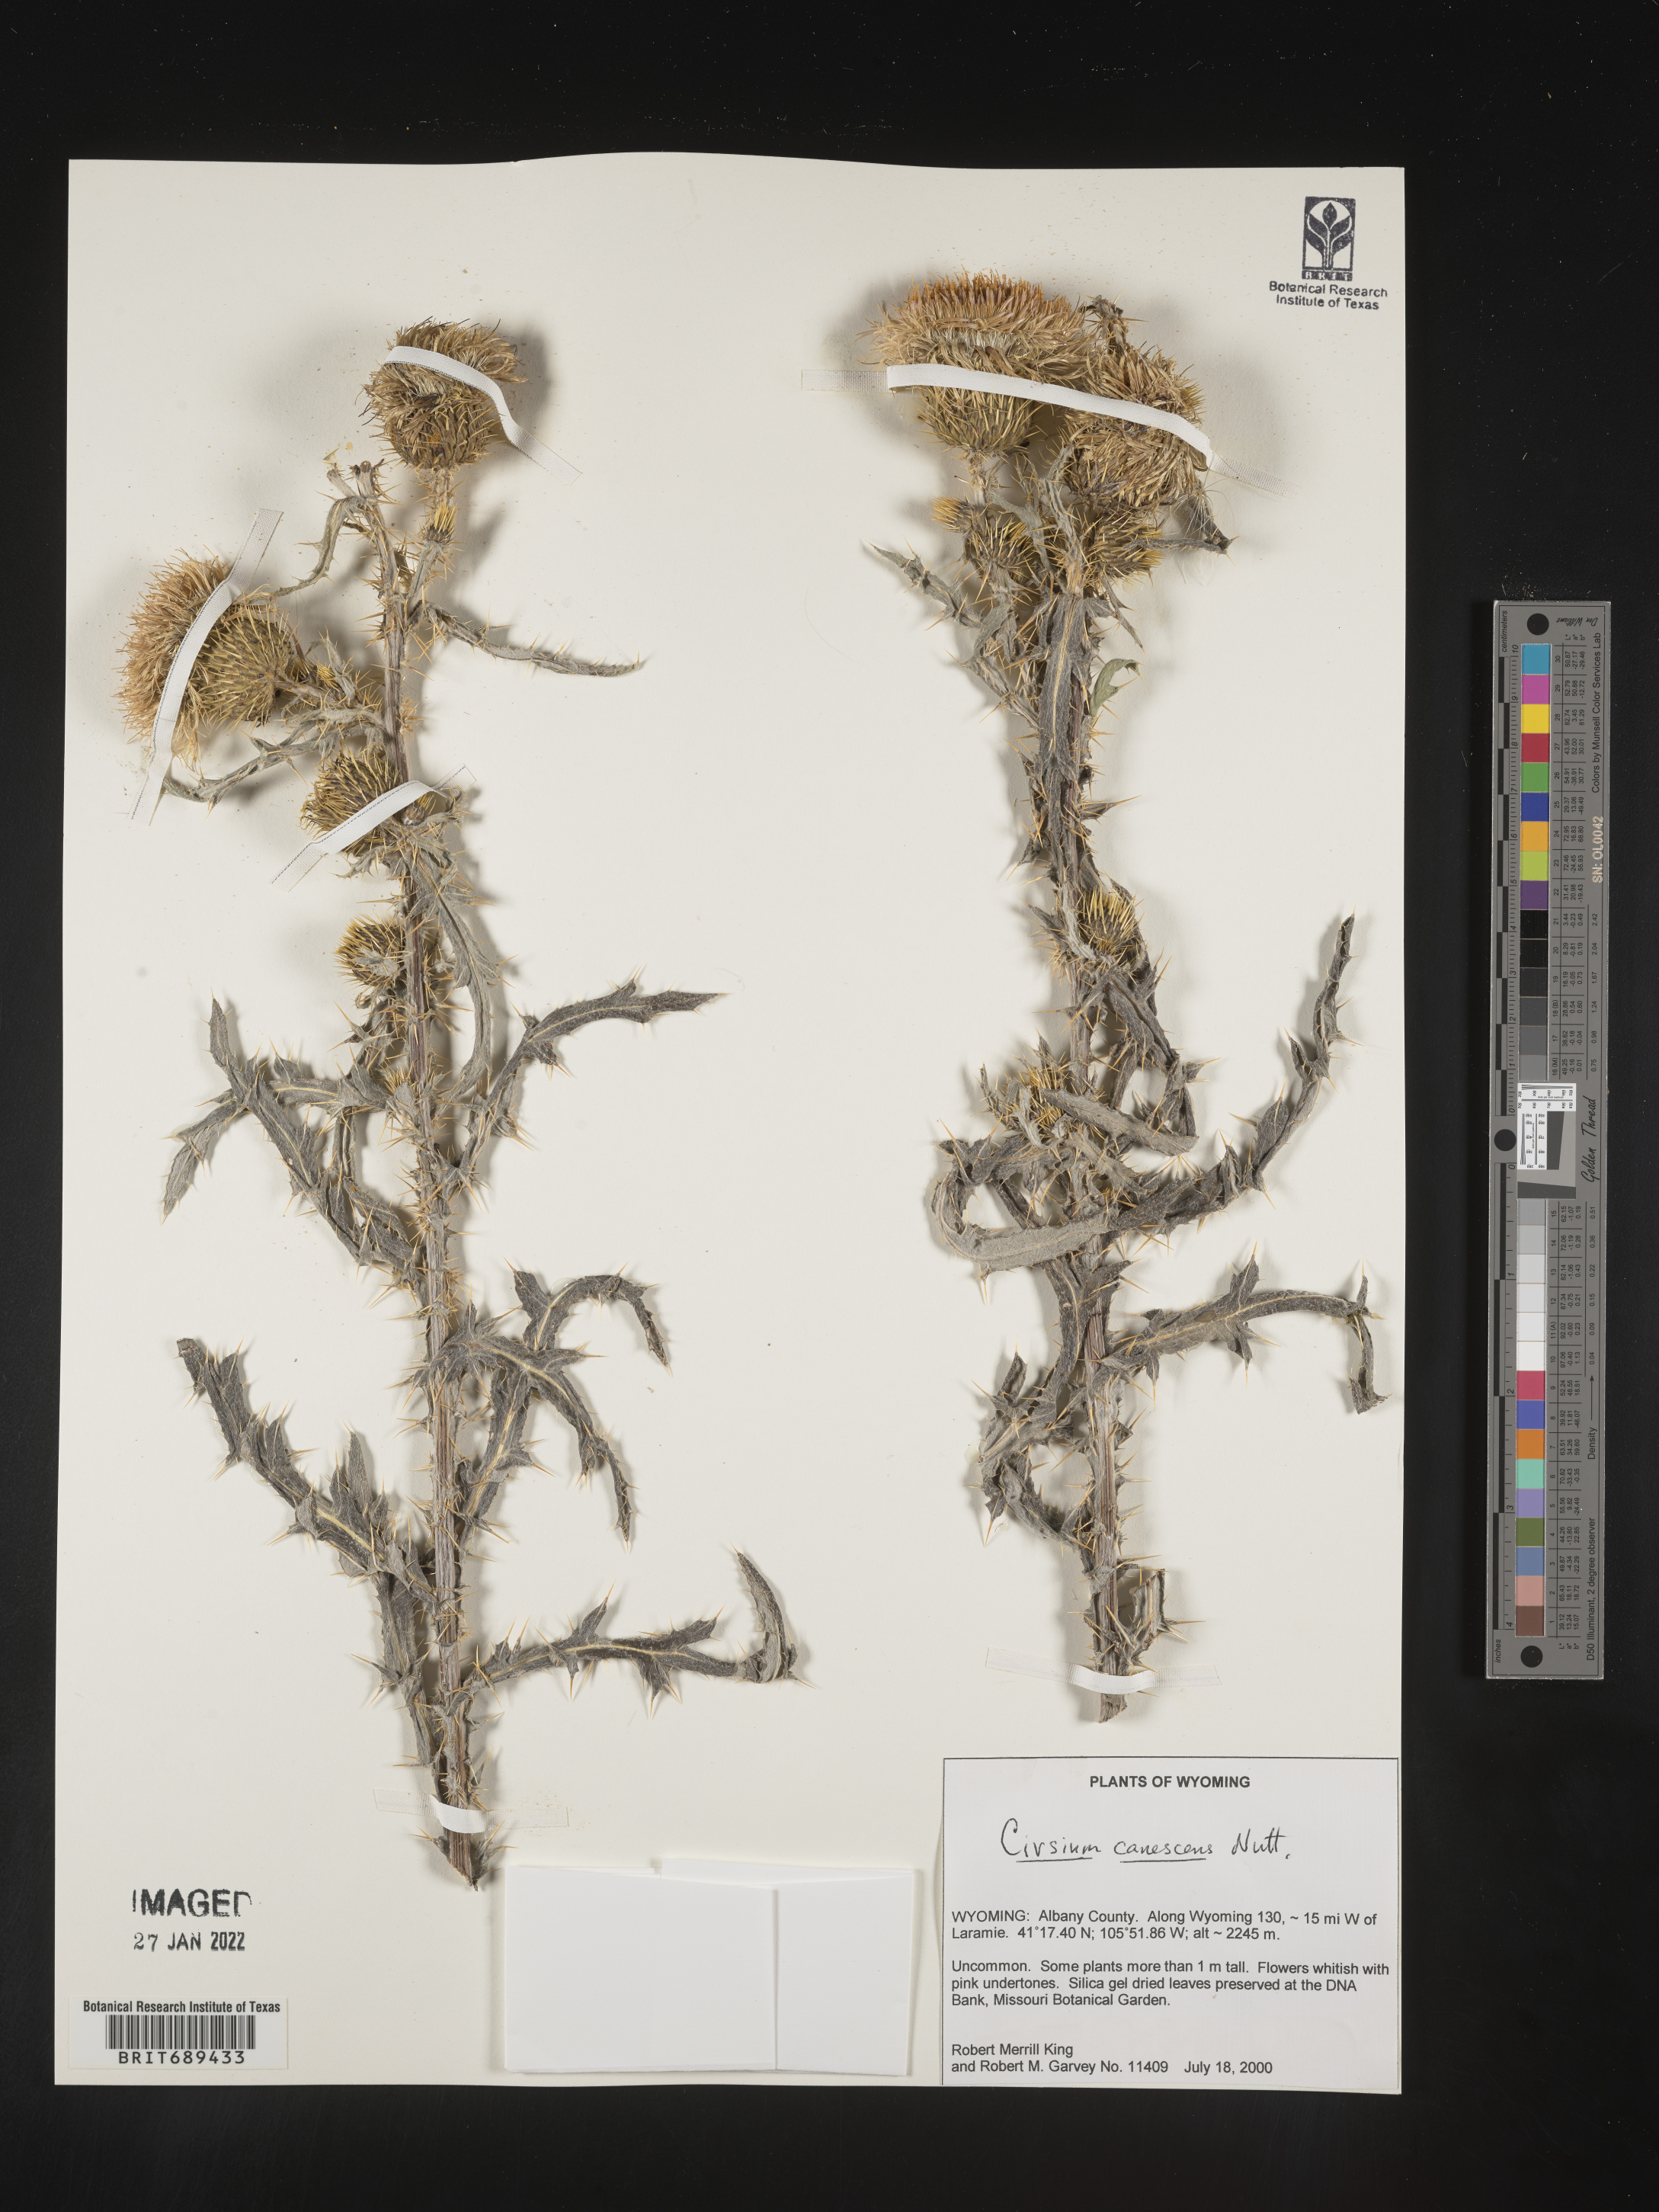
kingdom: Plantae
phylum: Tracheophyta
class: Magnoliopsida
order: Asterales
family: Asteraceae
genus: Cirsium
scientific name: Cirsium canescens
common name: Prairie thistle
